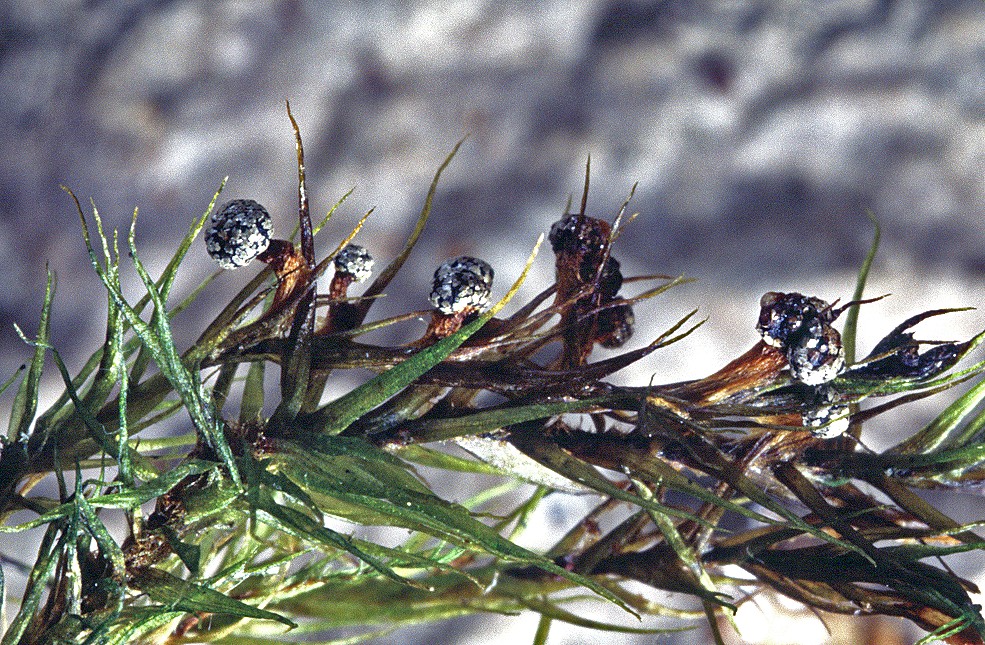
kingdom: Protozoa
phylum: Mycetozoa
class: Myxomycetes
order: Physarales
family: Didymiaceae
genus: Lepidoderma
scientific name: Lepidoderma tigrinum
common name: Lepidoderma crassipes
